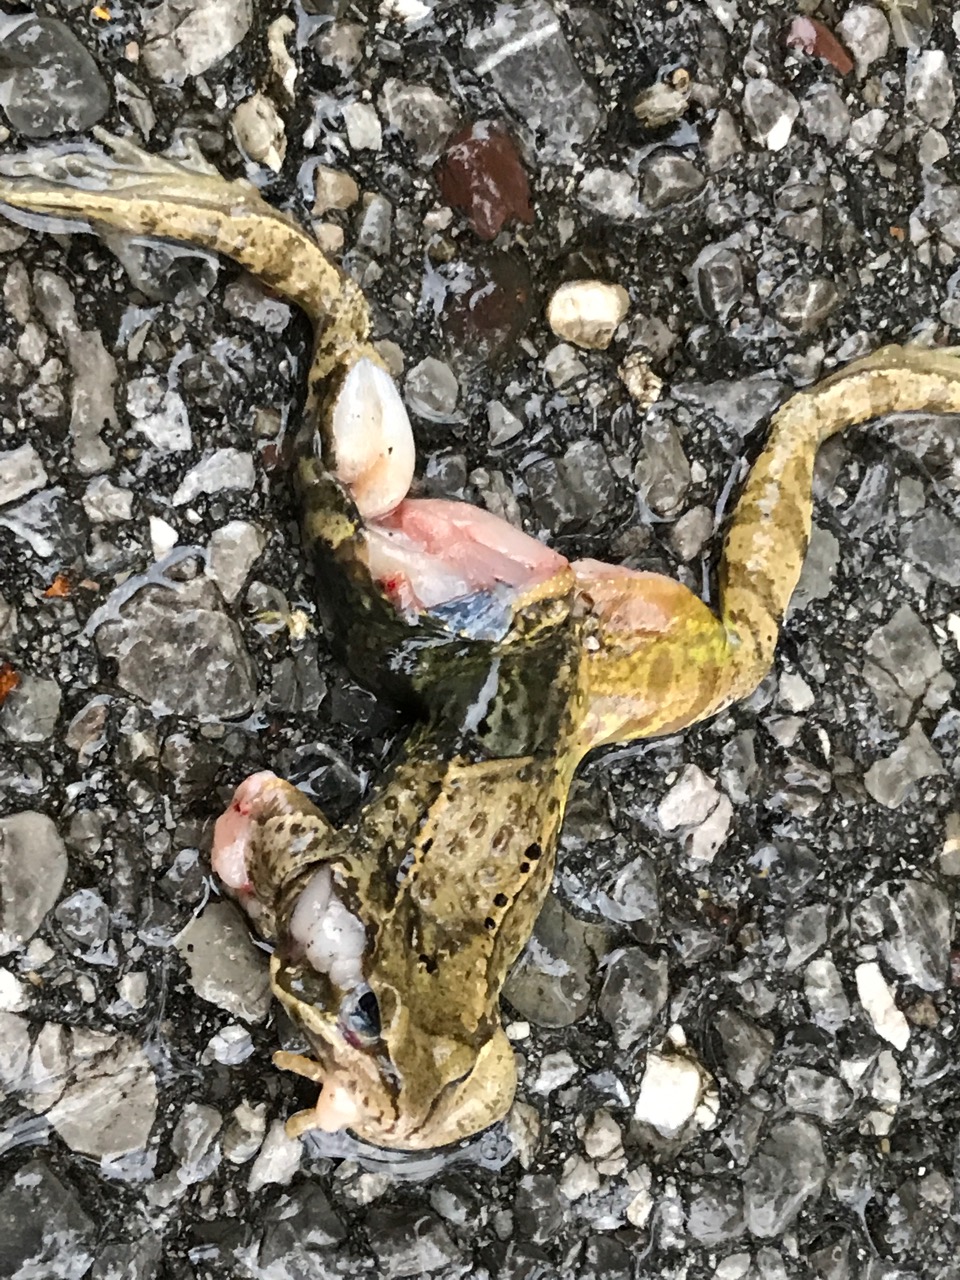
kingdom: Animalia
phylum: Chordata
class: Amphibia
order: Anura
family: Ranidae
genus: Rana
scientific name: Rana dalmatina
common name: Agile frog
